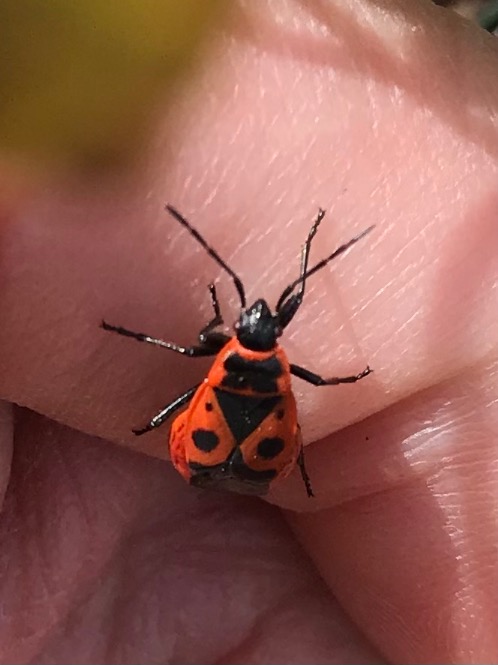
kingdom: Animalia
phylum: Arthropoda
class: Insecta
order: Hemiptera
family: Pyrrhocoridae
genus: Pyrrhocoris
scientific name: Pyrrhocoris apterus
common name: Ildtæge
